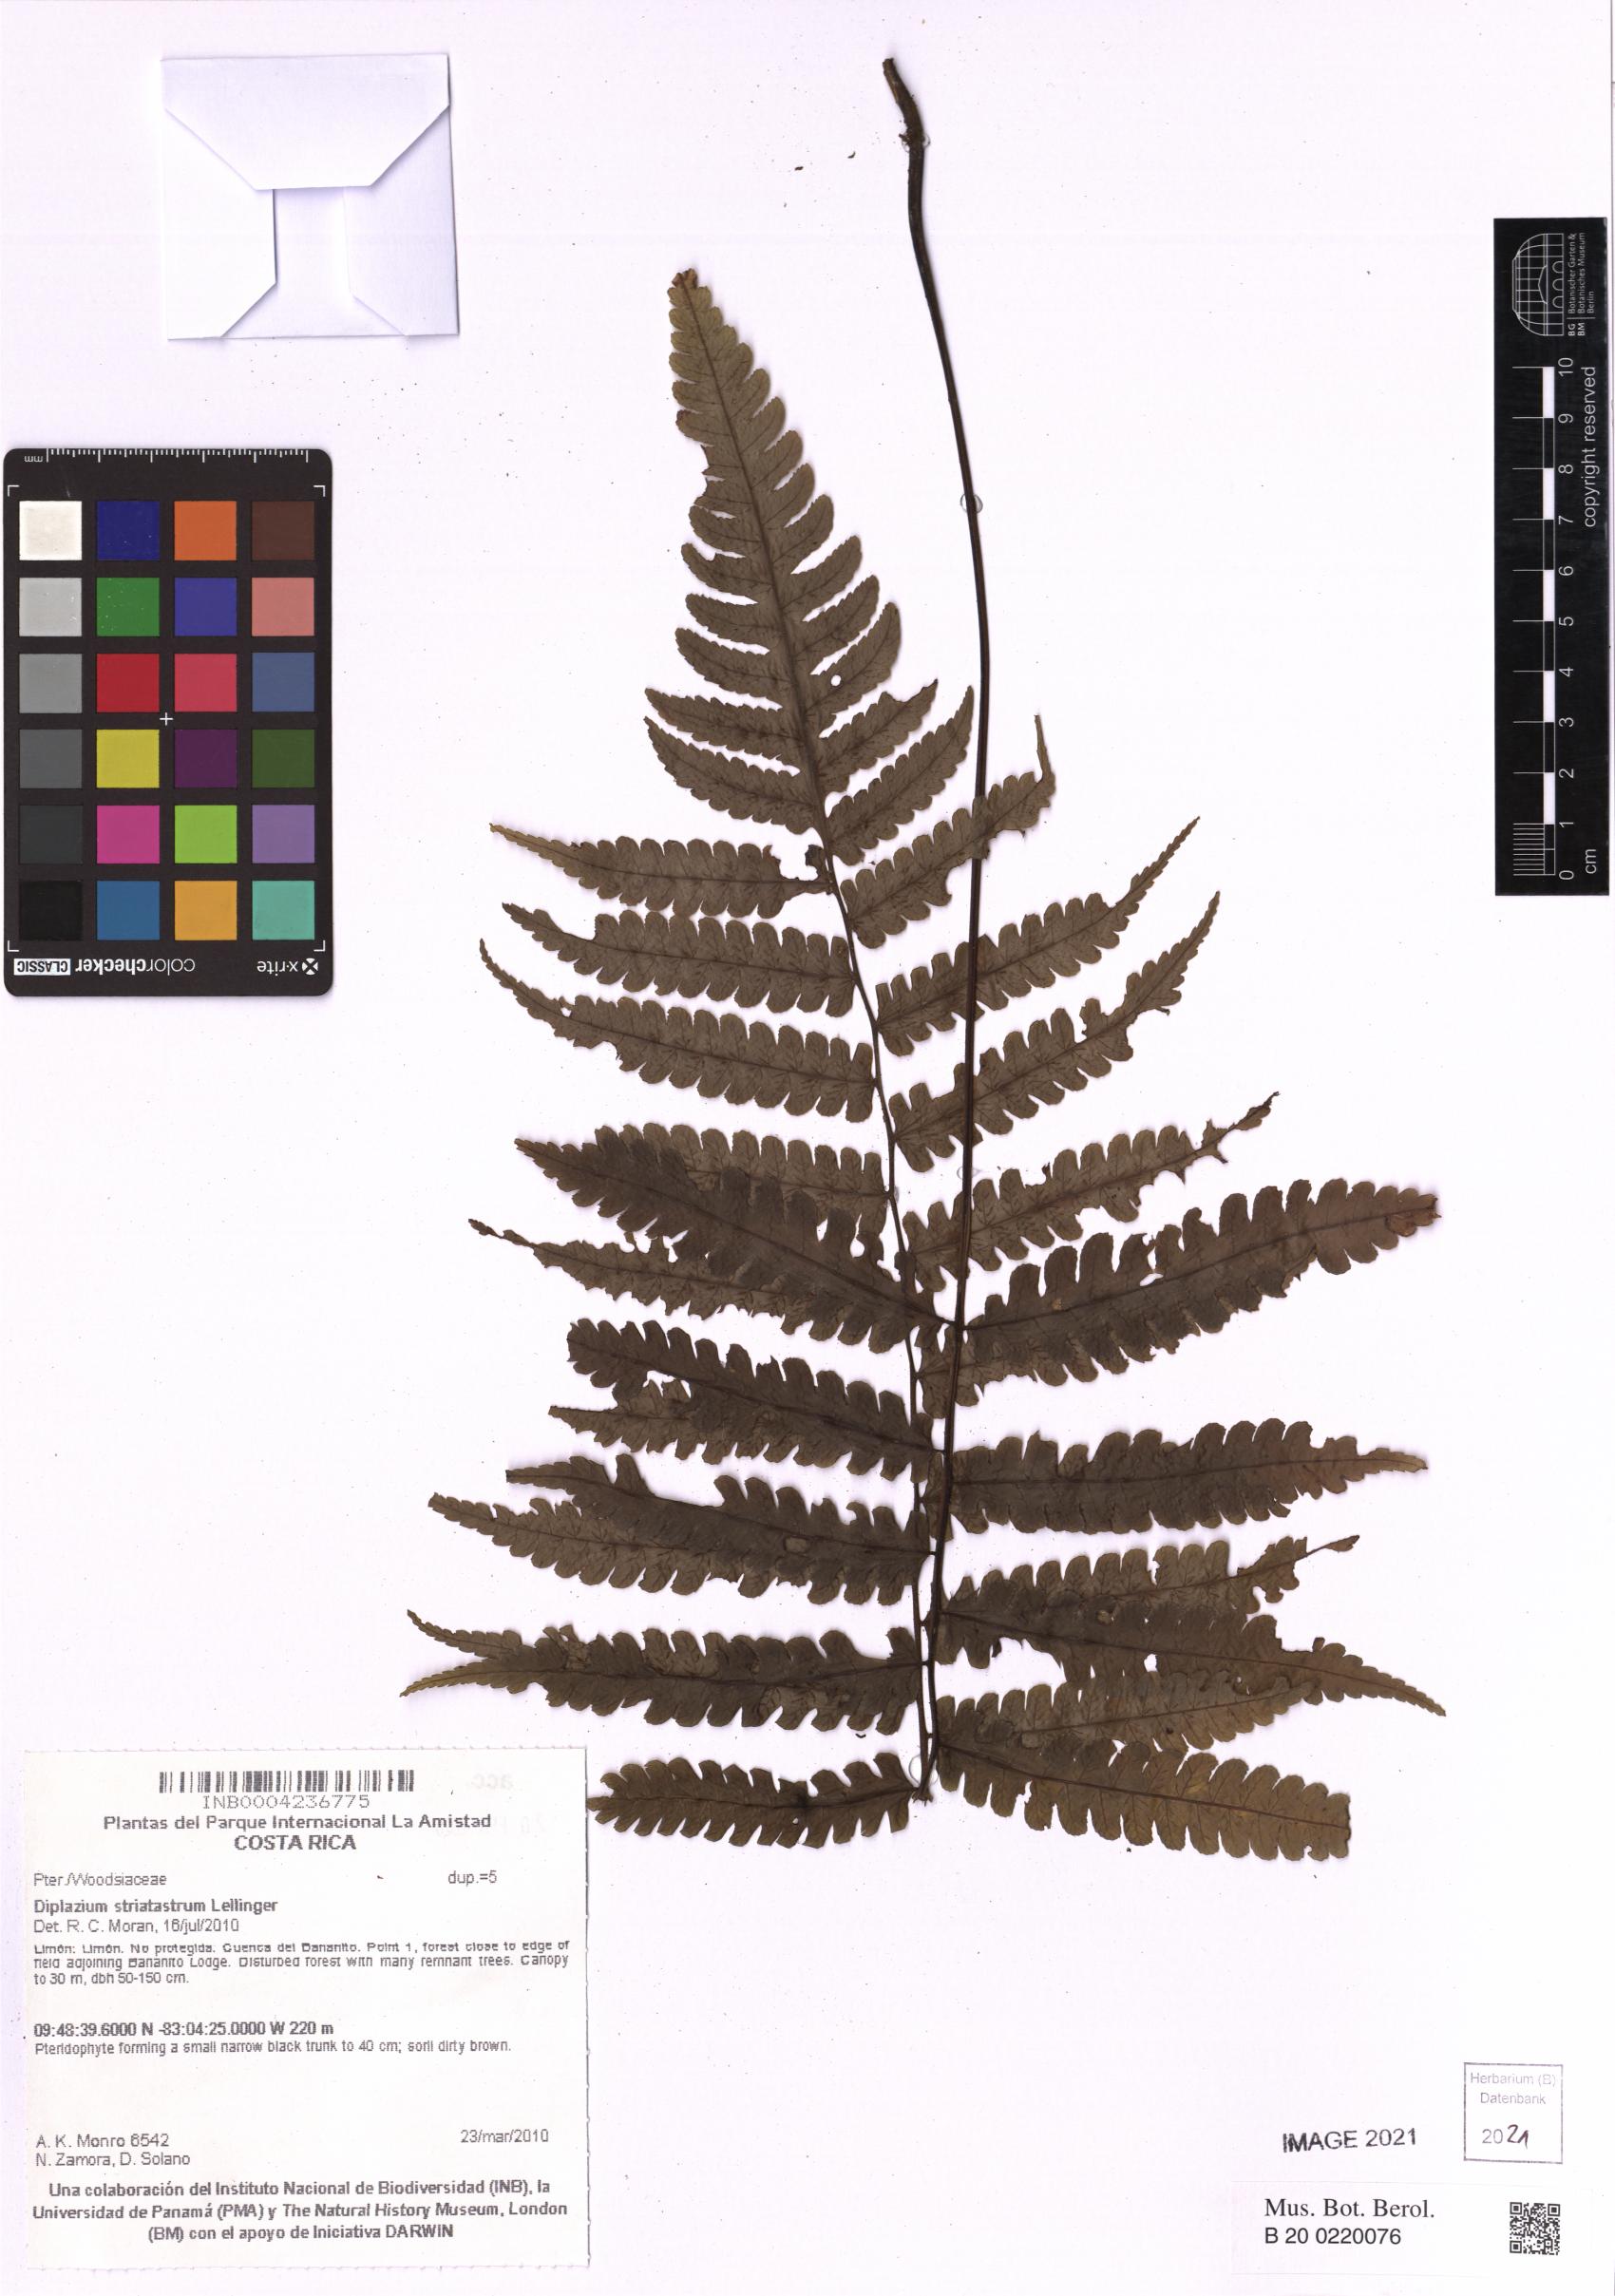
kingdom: Plantae
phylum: Tracheophyta
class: Polypodiopsida
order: Polypodiales
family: Athyriaceae
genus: Diplazium
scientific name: Diplazium striatastrum
